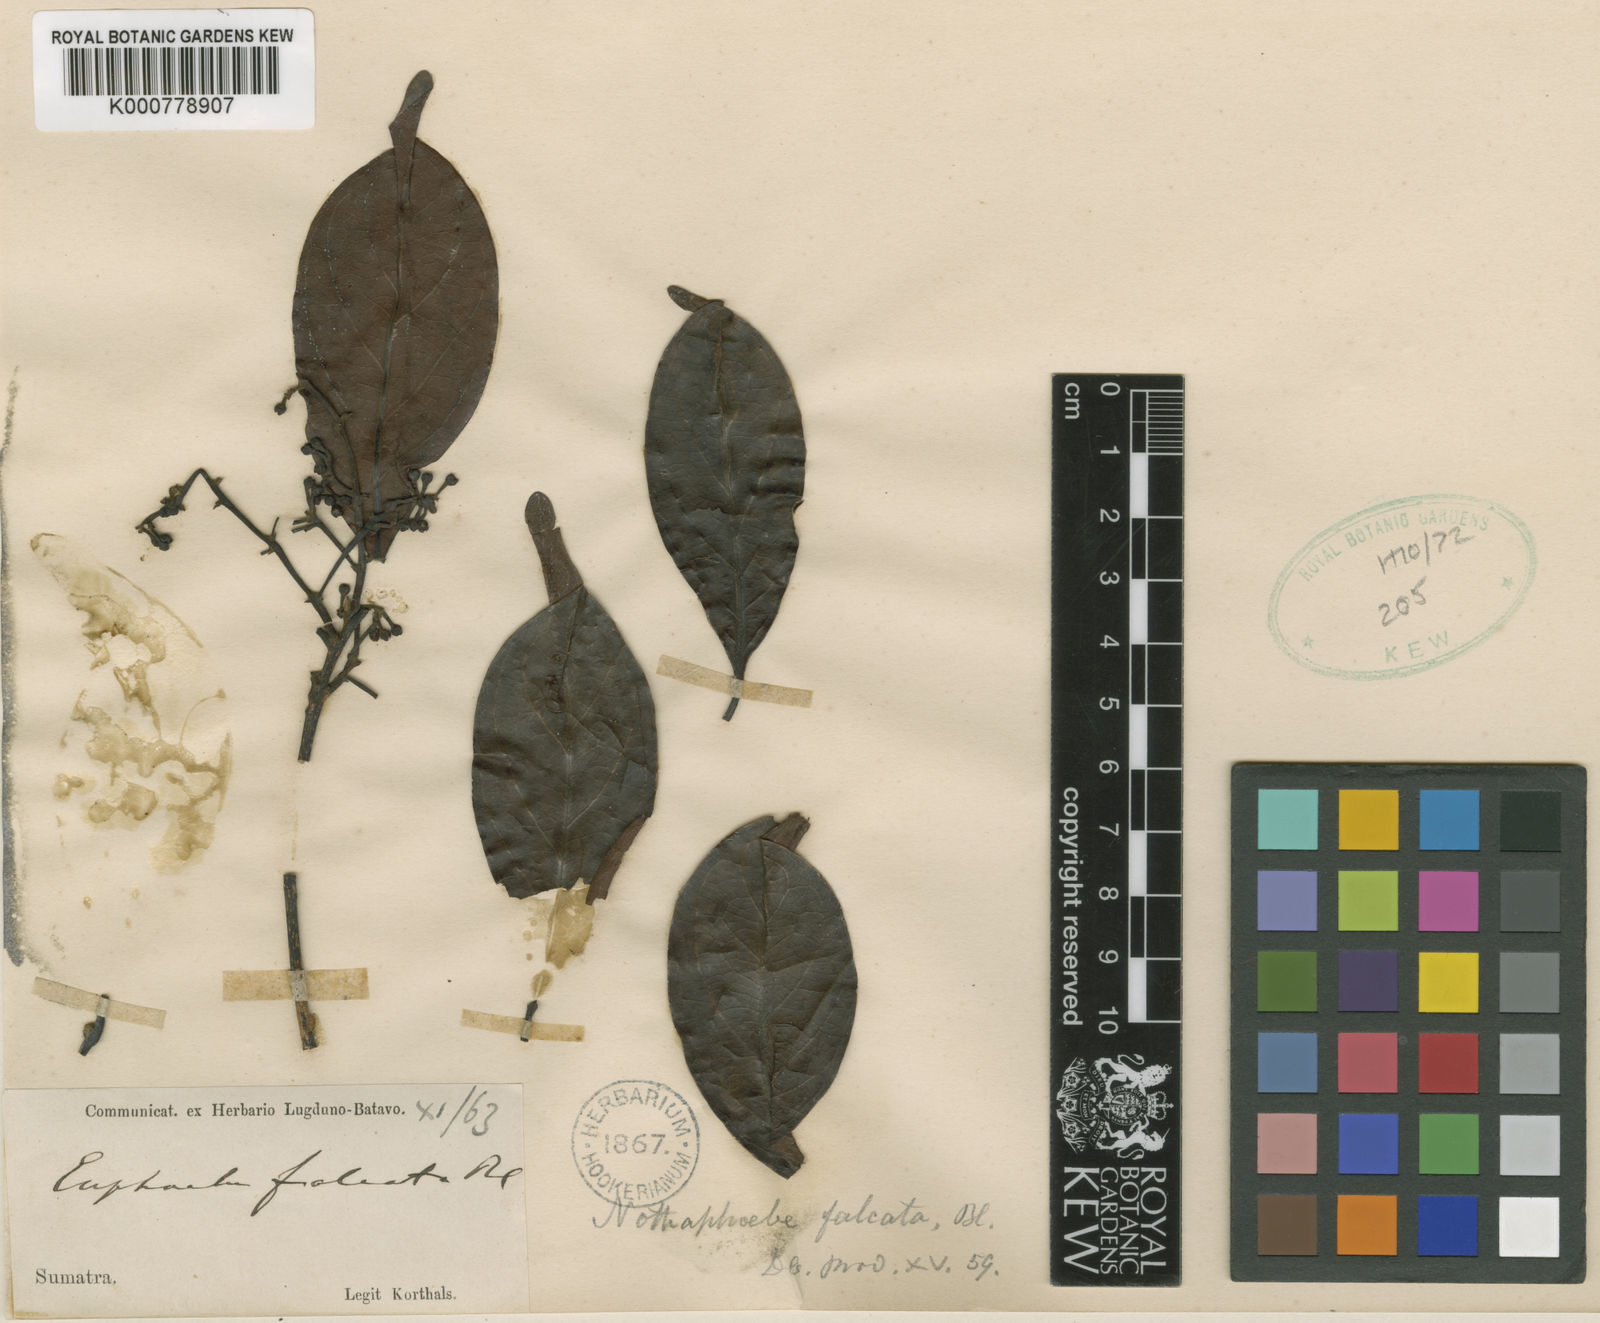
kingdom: Plantae
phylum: Tracheophyta
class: Magnoliopsida
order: Laurales
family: Lauraceae
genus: Nothaphoebe
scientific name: Nothaphoebe falcata
